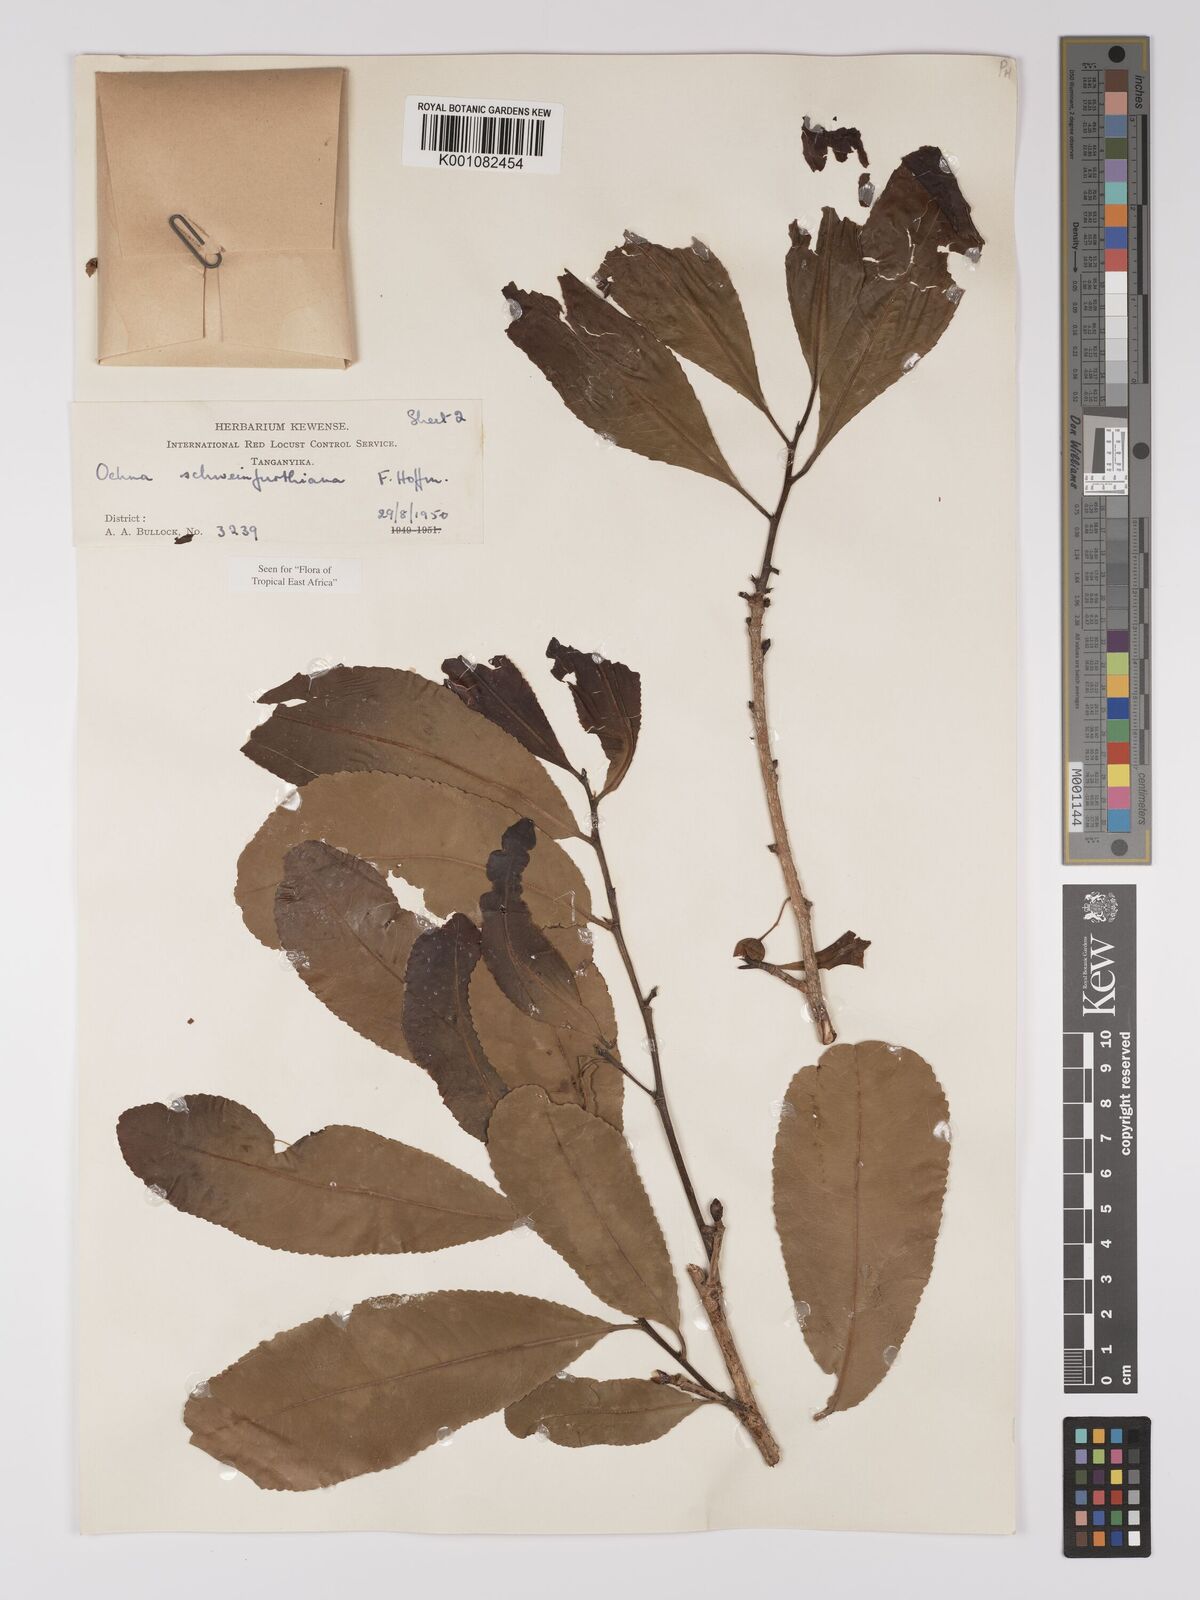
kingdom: Plantae
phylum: Tracheophyta
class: Magnoliopsida
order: Malpighiales
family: Ochnaceae
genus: Ochna
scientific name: Ochna schweinfurthiana
